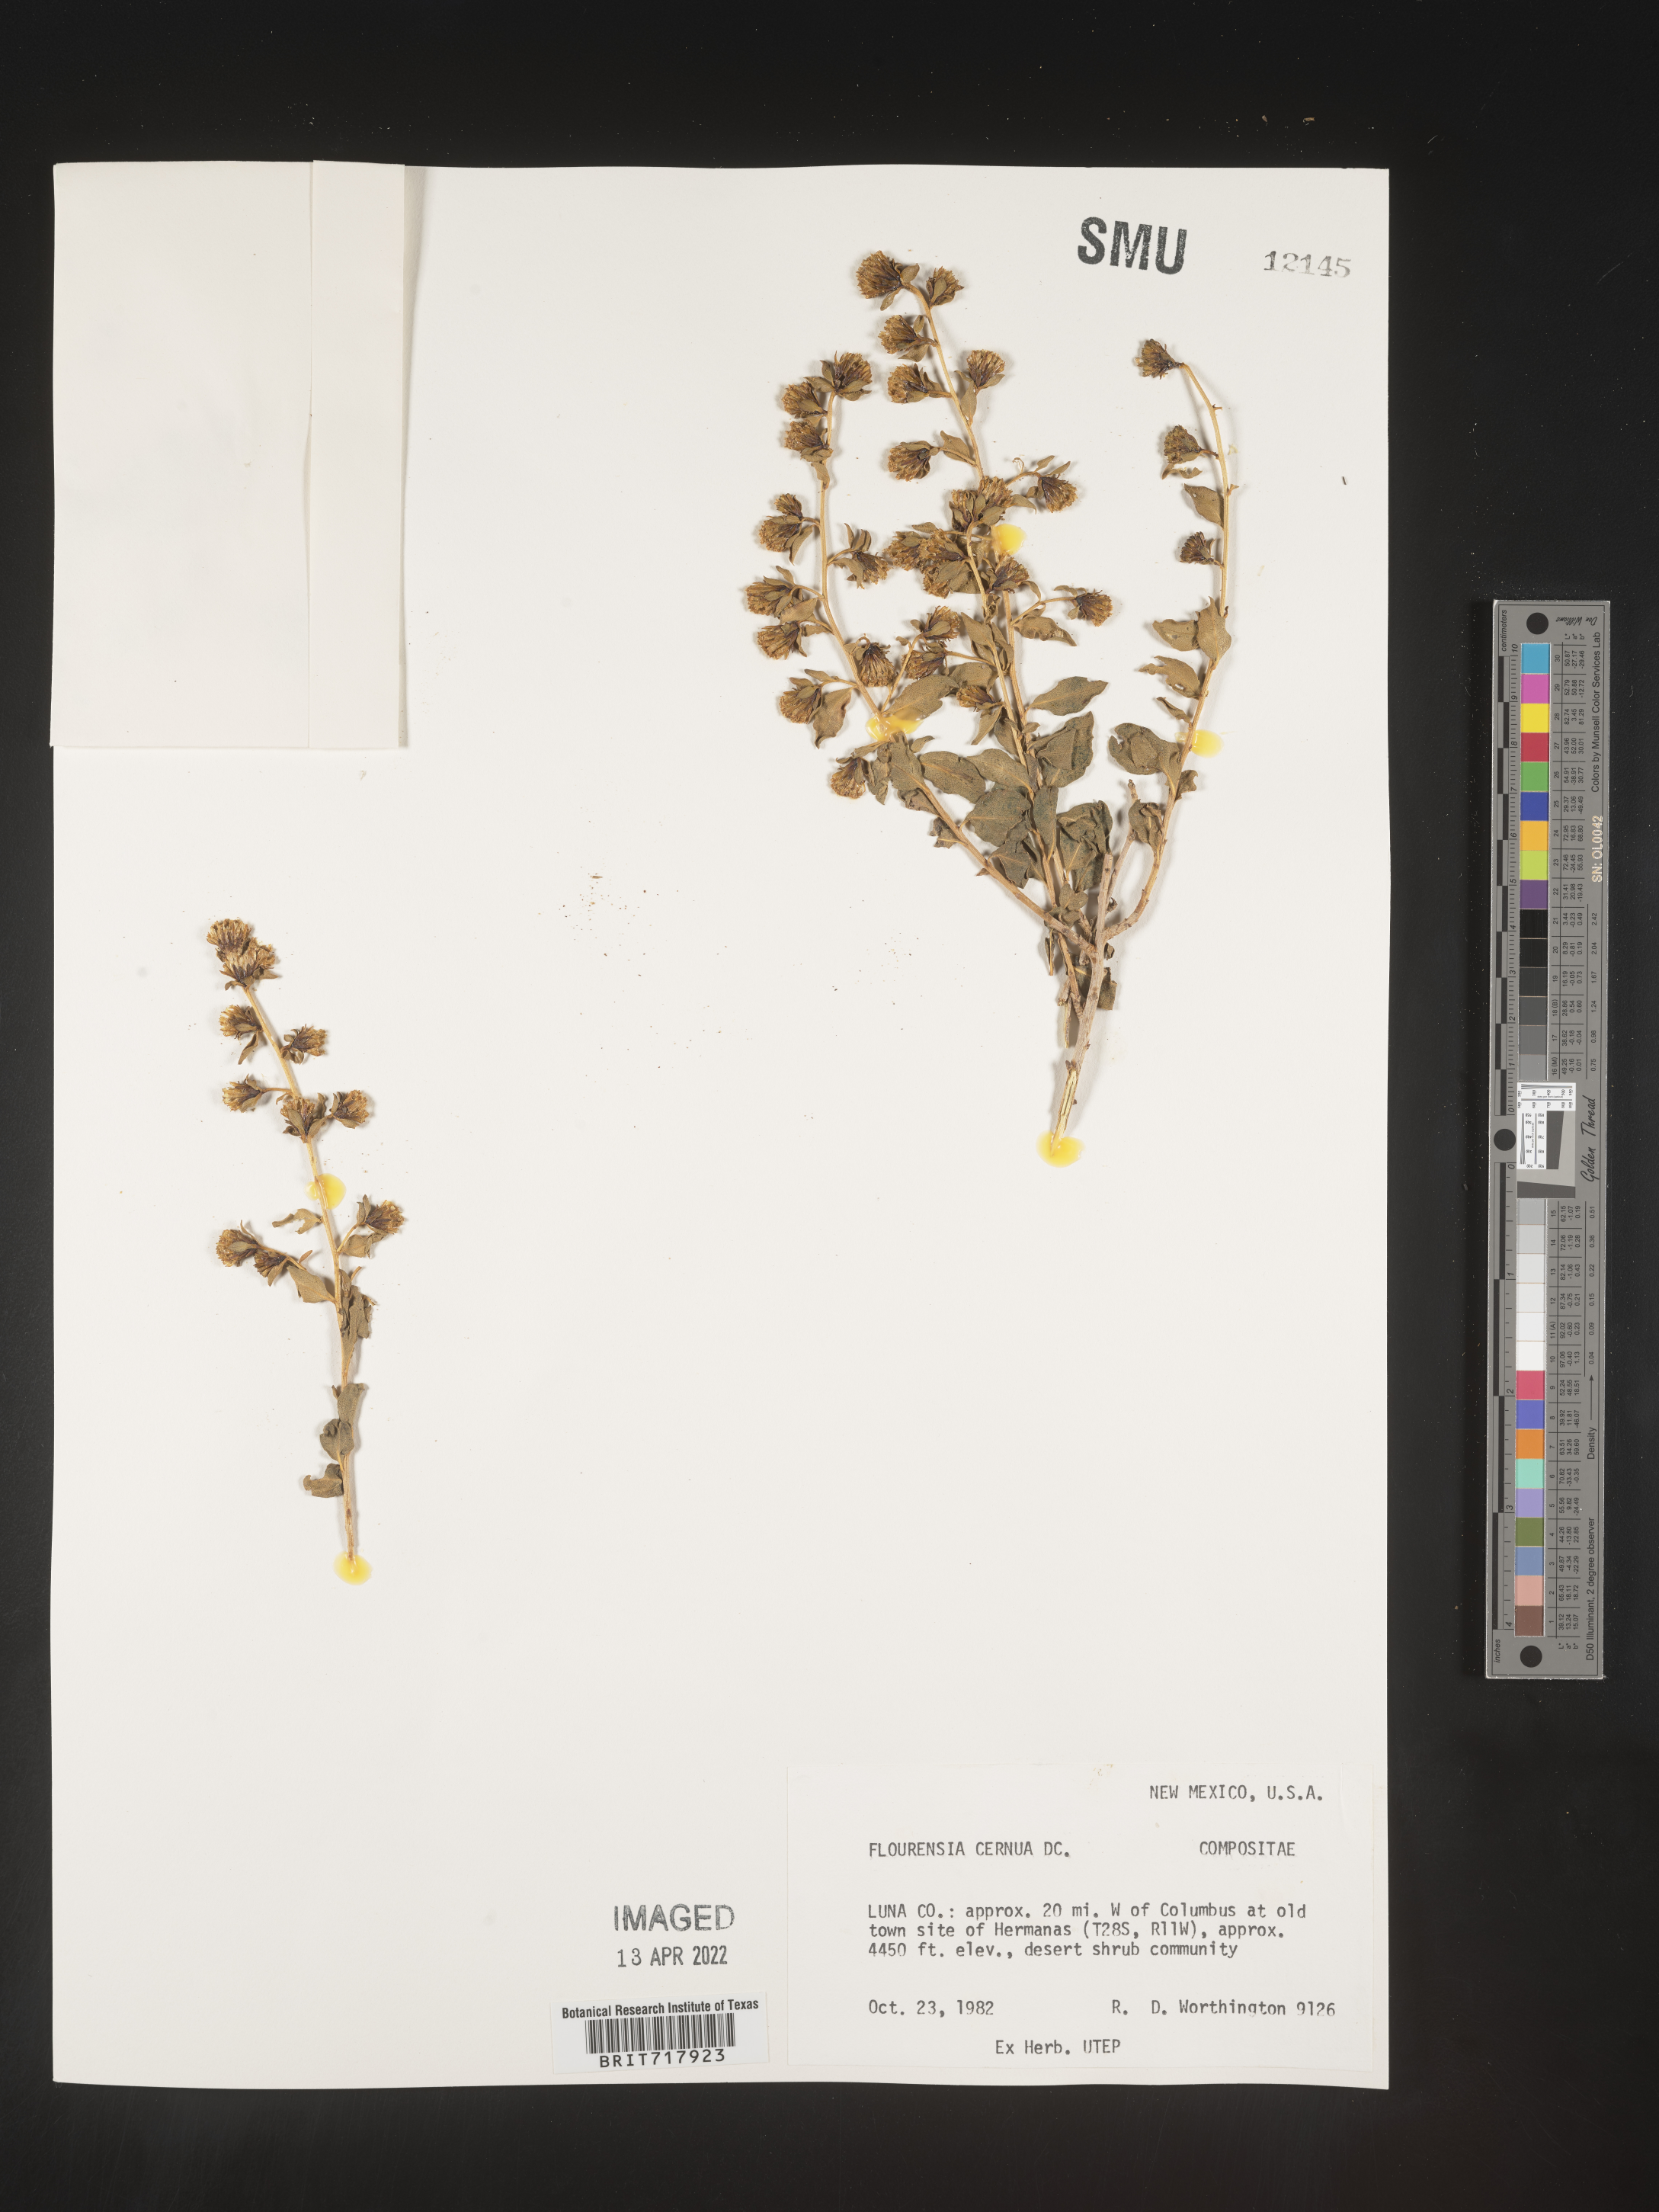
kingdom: Plantae
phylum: Tracheophyta
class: Magnoliopsida
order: Asterales
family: Asteraceae
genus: Flourensia
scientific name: Flourensia
